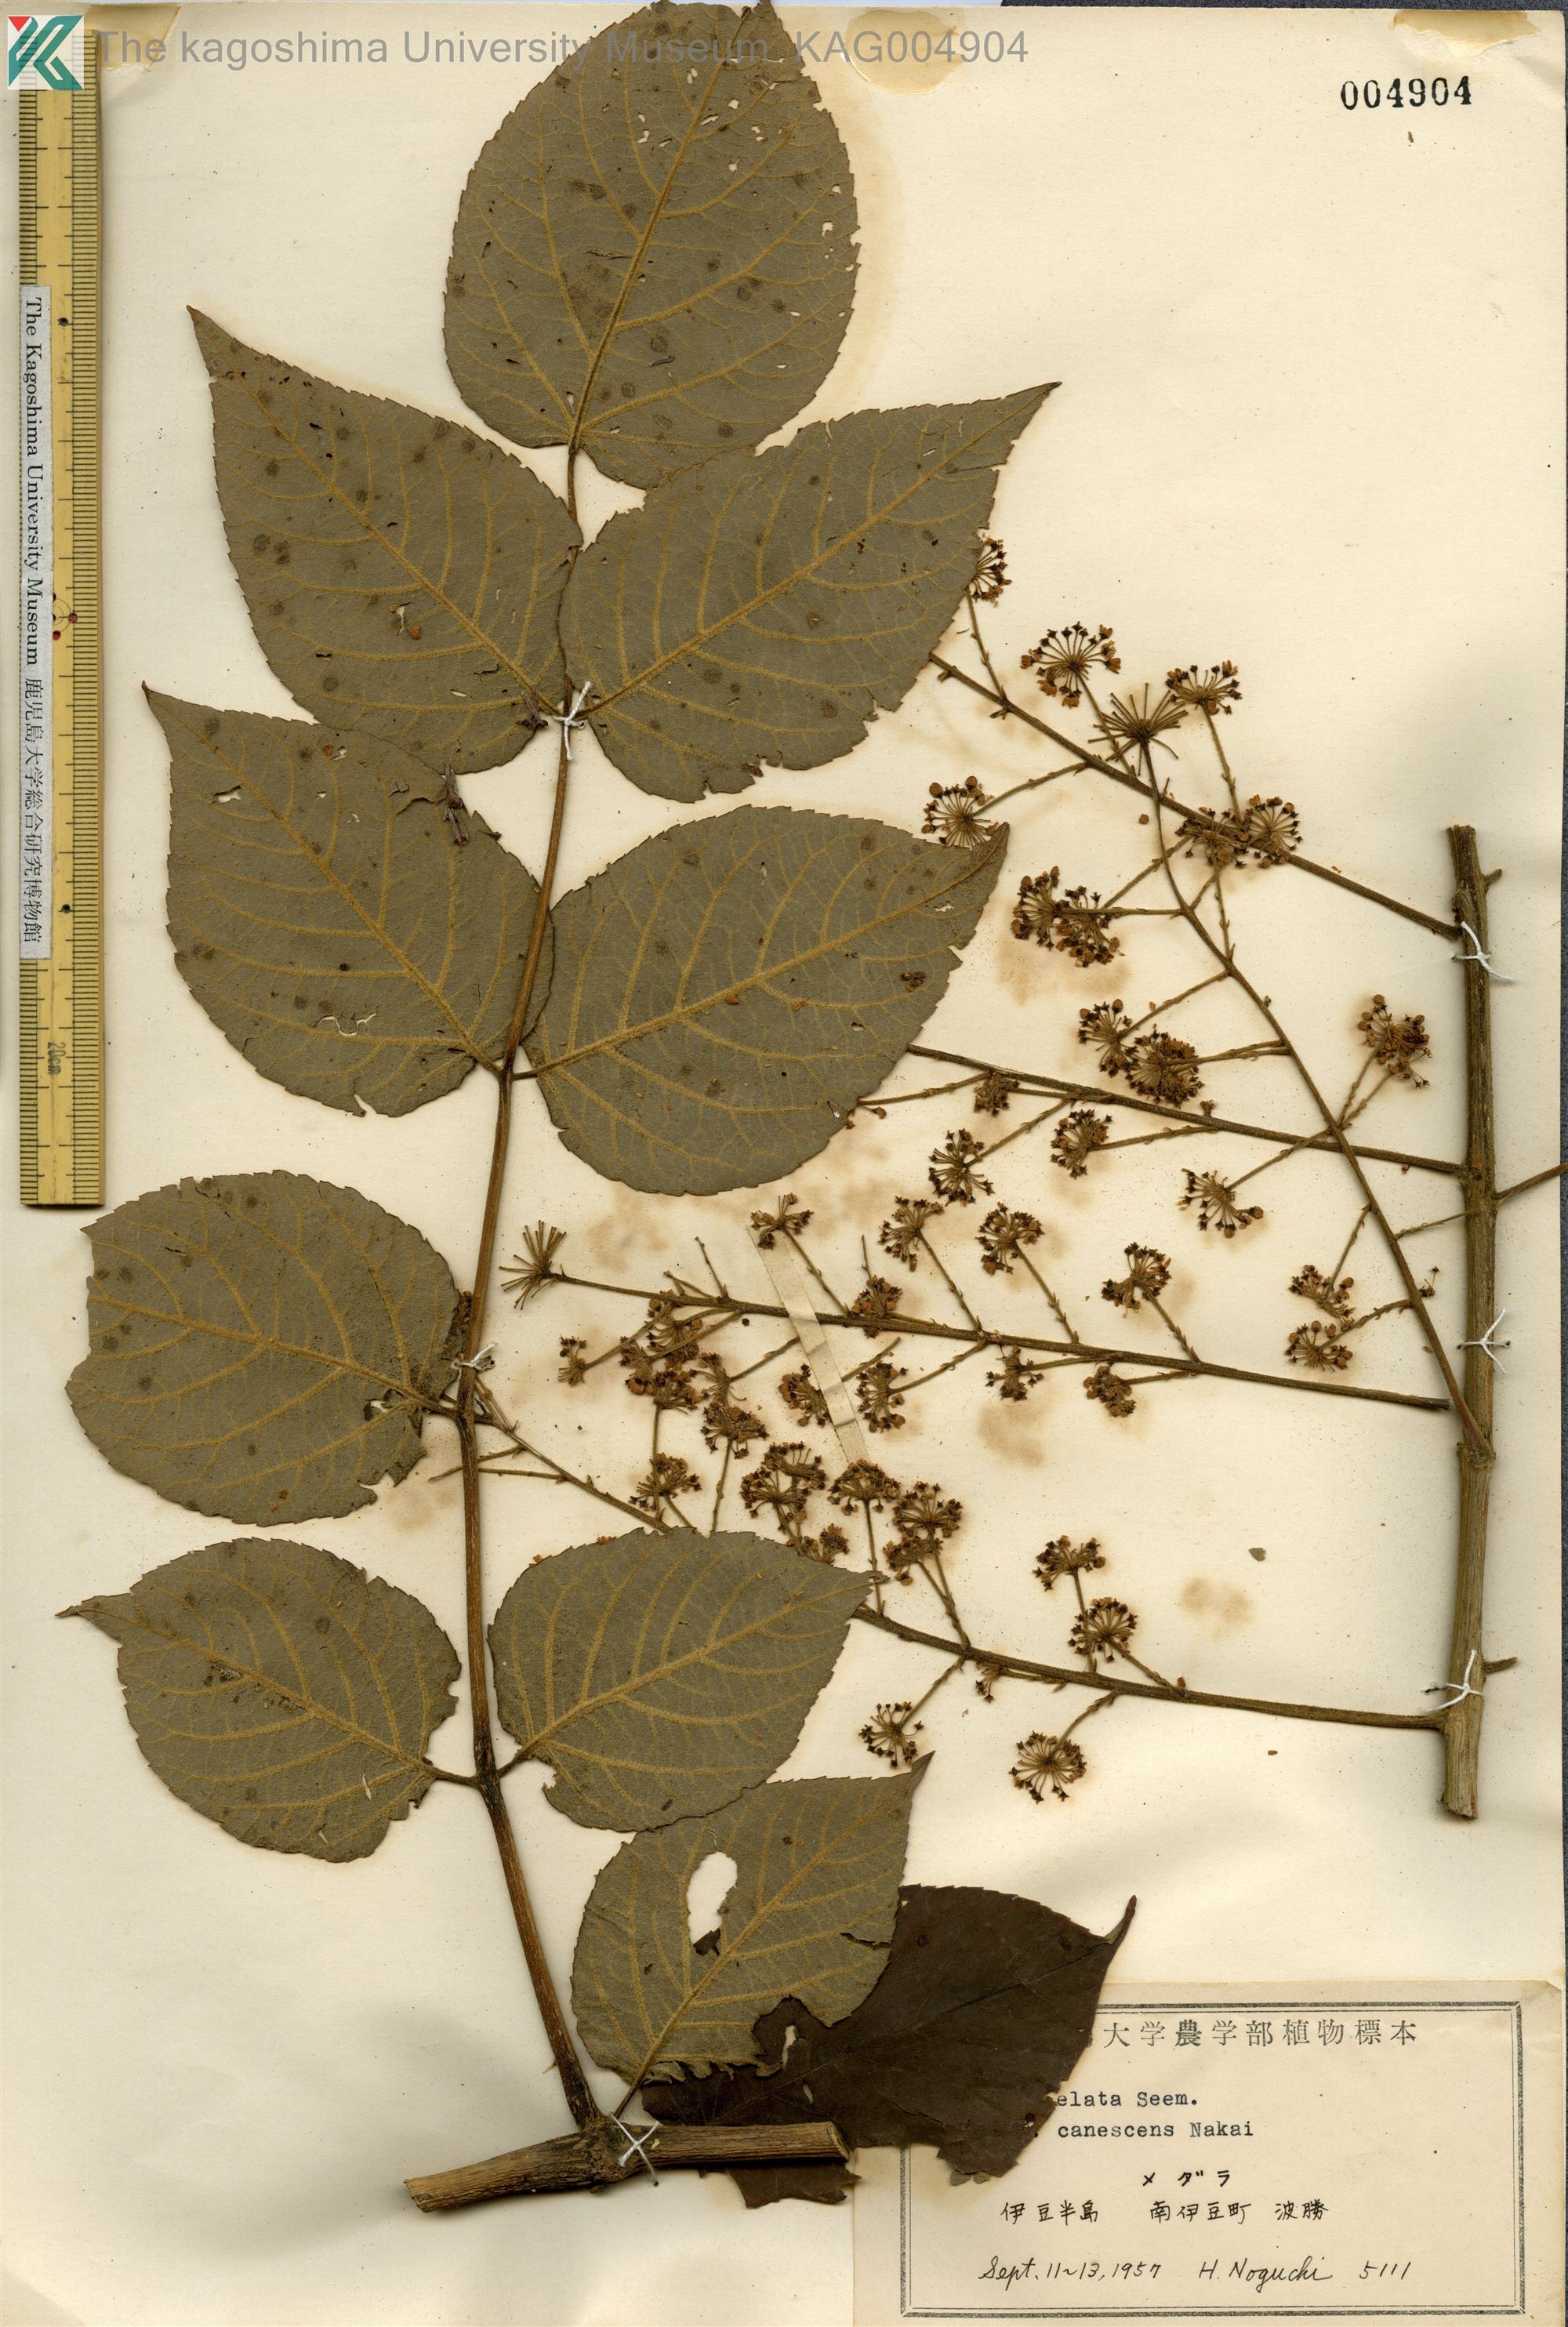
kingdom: Plantae
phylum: Tracheophyta
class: Magnoliopsida
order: Apiales
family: Araliaceae
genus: Aralia
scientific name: Aralia elata
